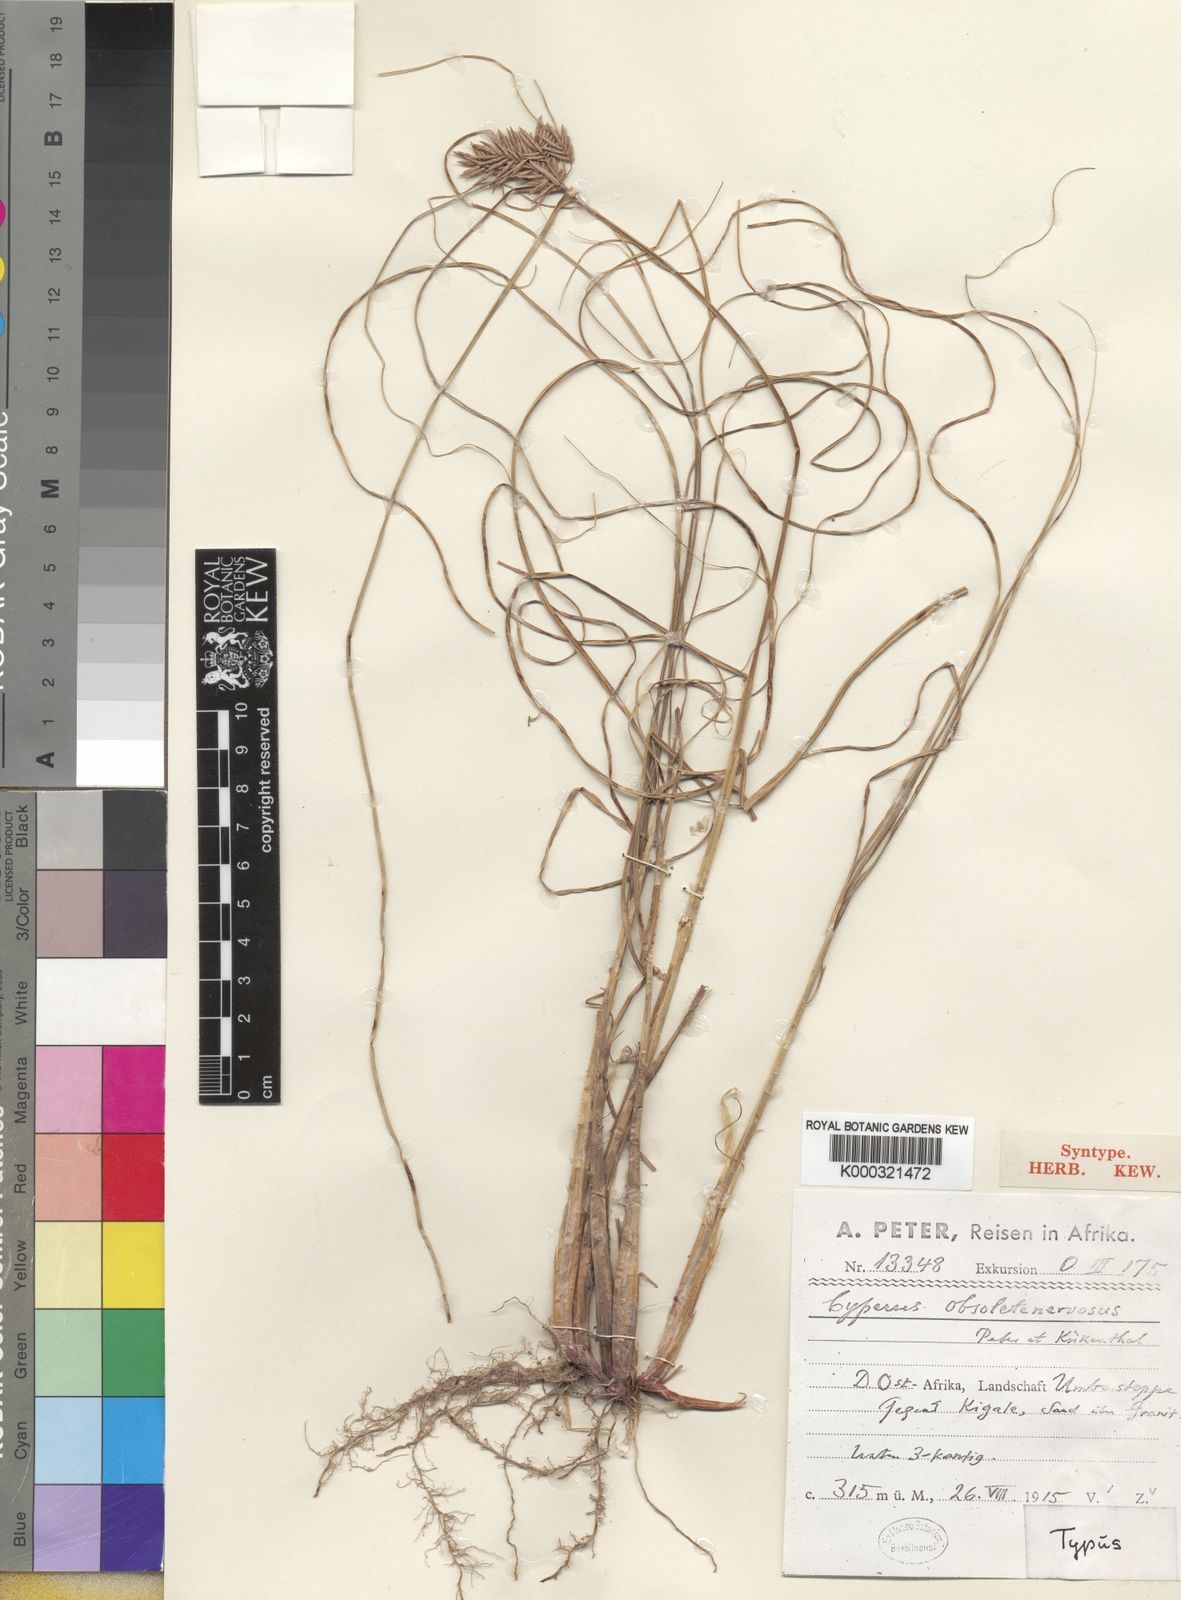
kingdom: Plantae
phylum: Tracheophyta
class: Liliopsida
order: Poales
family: Cyperaceae
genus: Cyperus
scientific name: Cyperus
